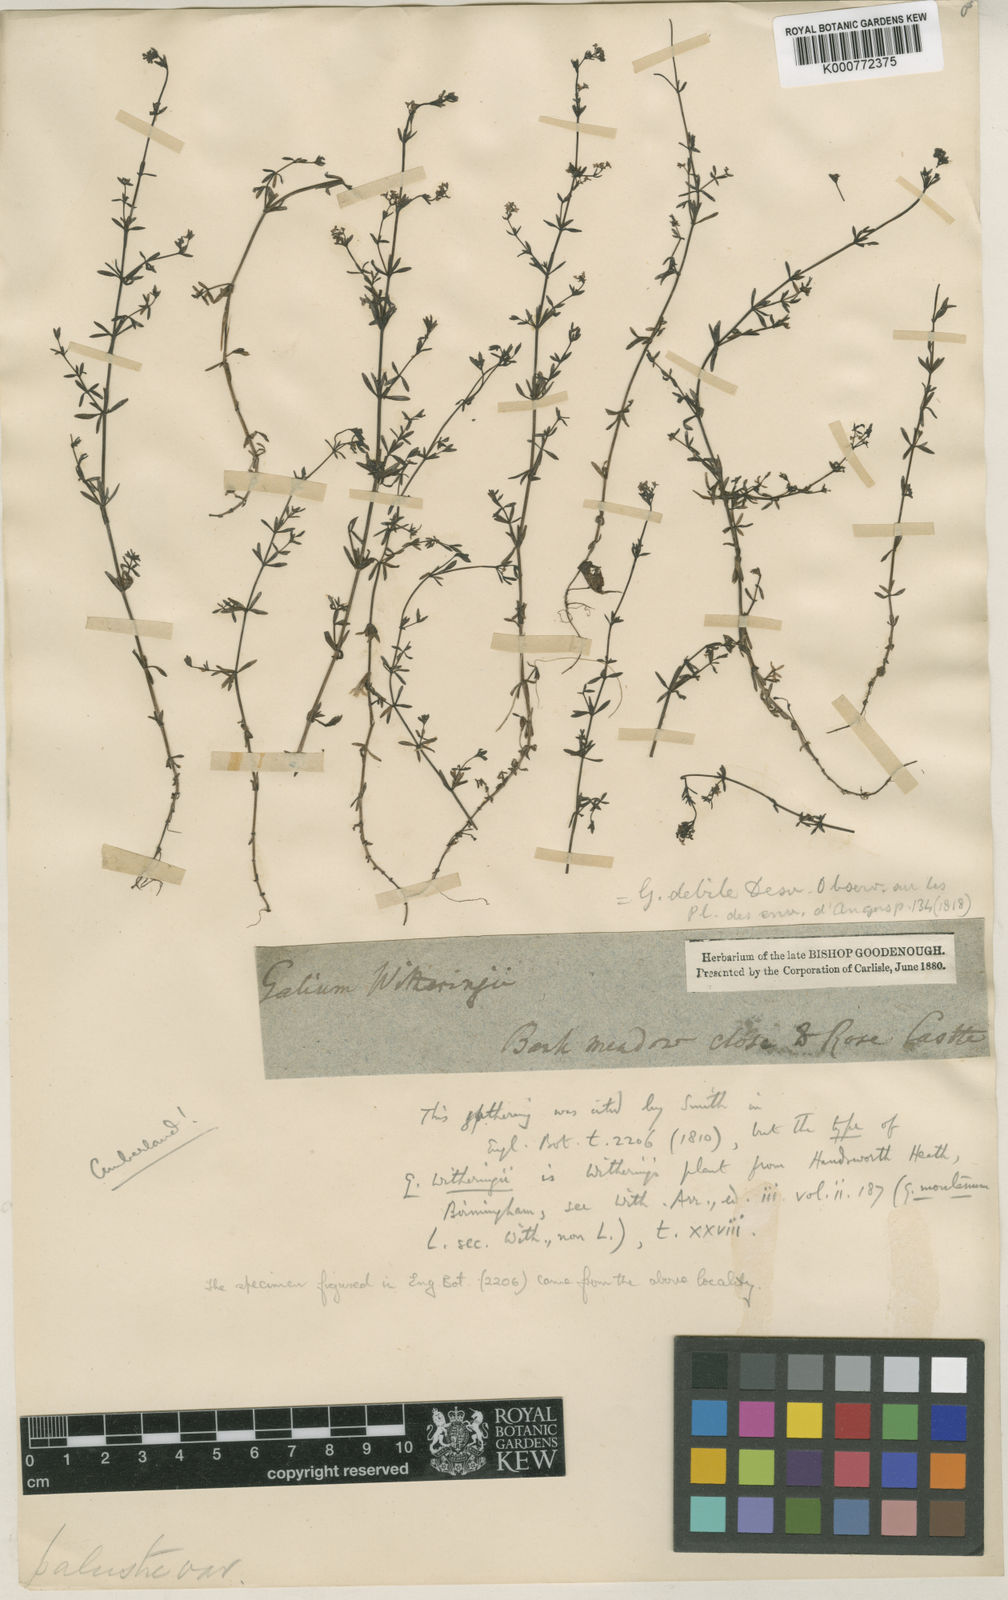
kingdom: Plantae
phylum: Tracheophyta
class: Magnoliopsida
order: Gentianales
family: Rubiaceae
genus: Galium
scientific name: Galium palustre
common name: Common marsh-bedstraw
